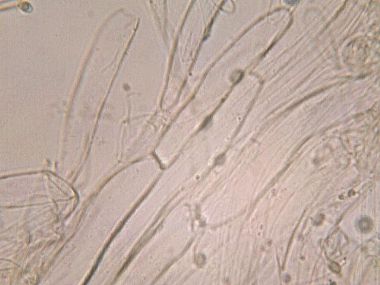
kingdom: Fungi
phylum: Basidiomycota
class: Agaricomycetes
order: Agaricales
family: Tricholomataceae
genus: Tricholoma
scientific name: Tricholoma scalpturatum
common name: gulplettet ridderhat
